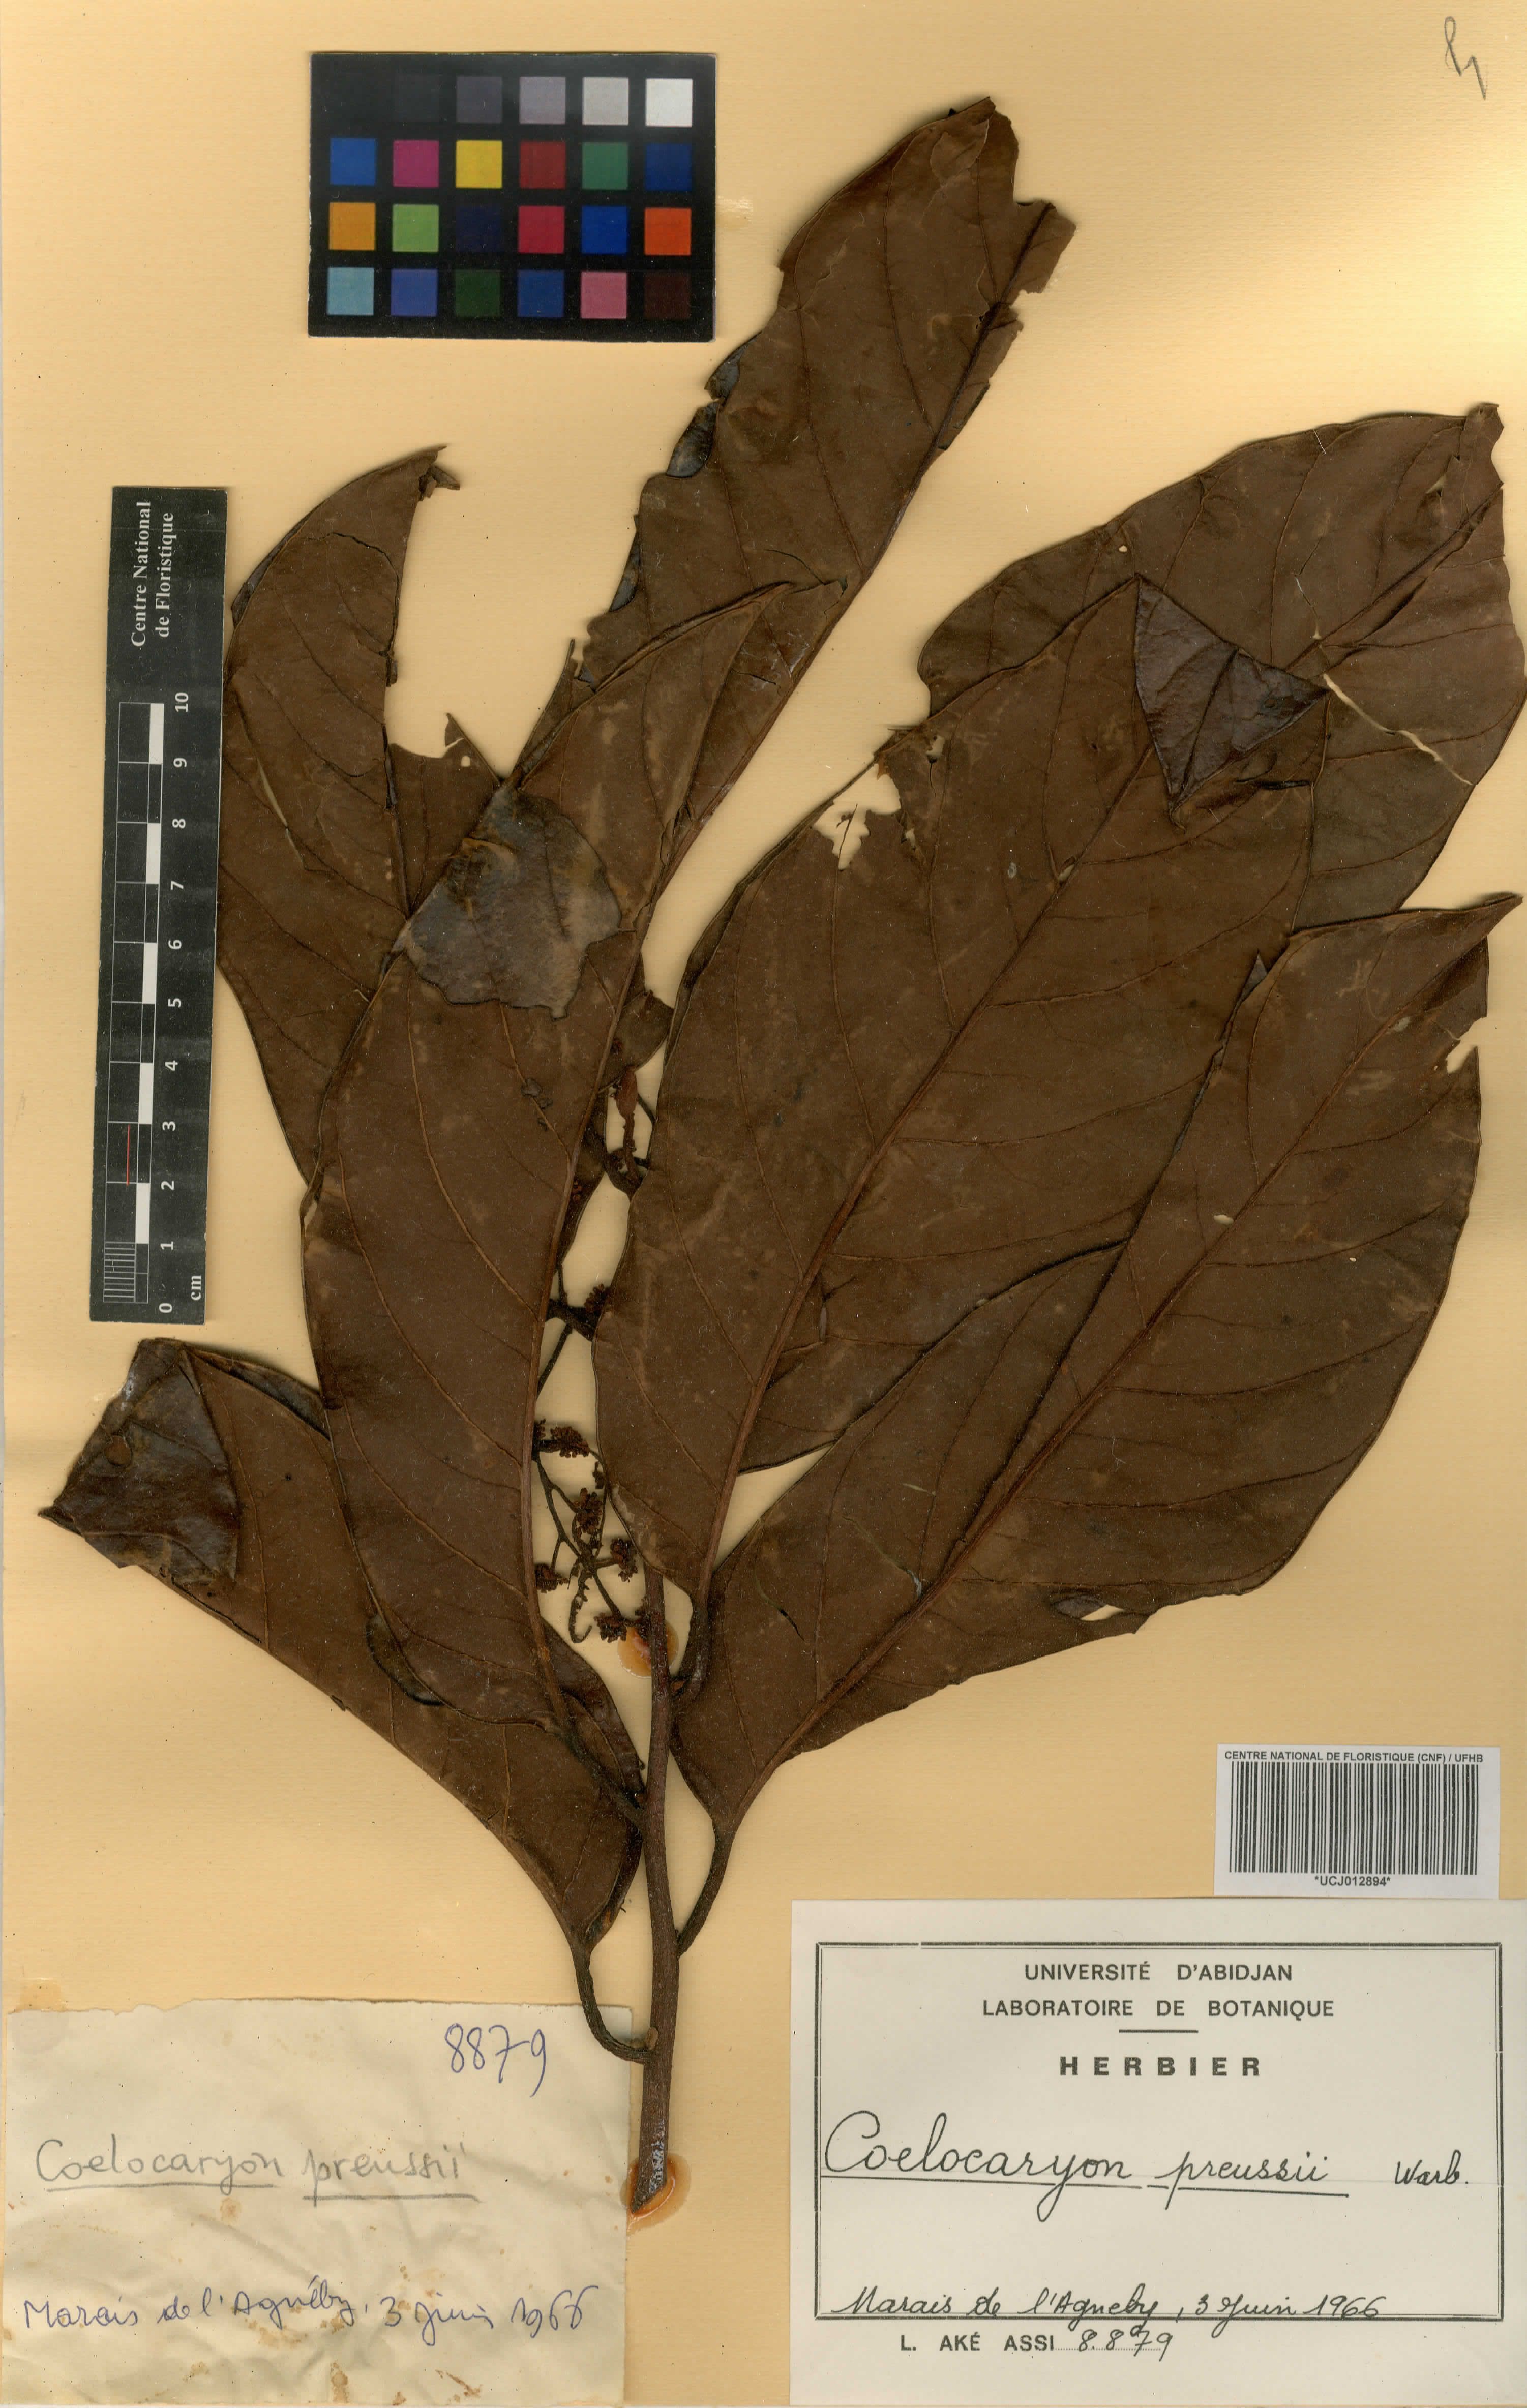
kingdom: Plantae
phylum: Tracheophyta
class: Magnoliopsida
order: Magnoliales
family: Myristicaceae
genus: Coelocaryon
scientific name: Coelocaryon preussii
